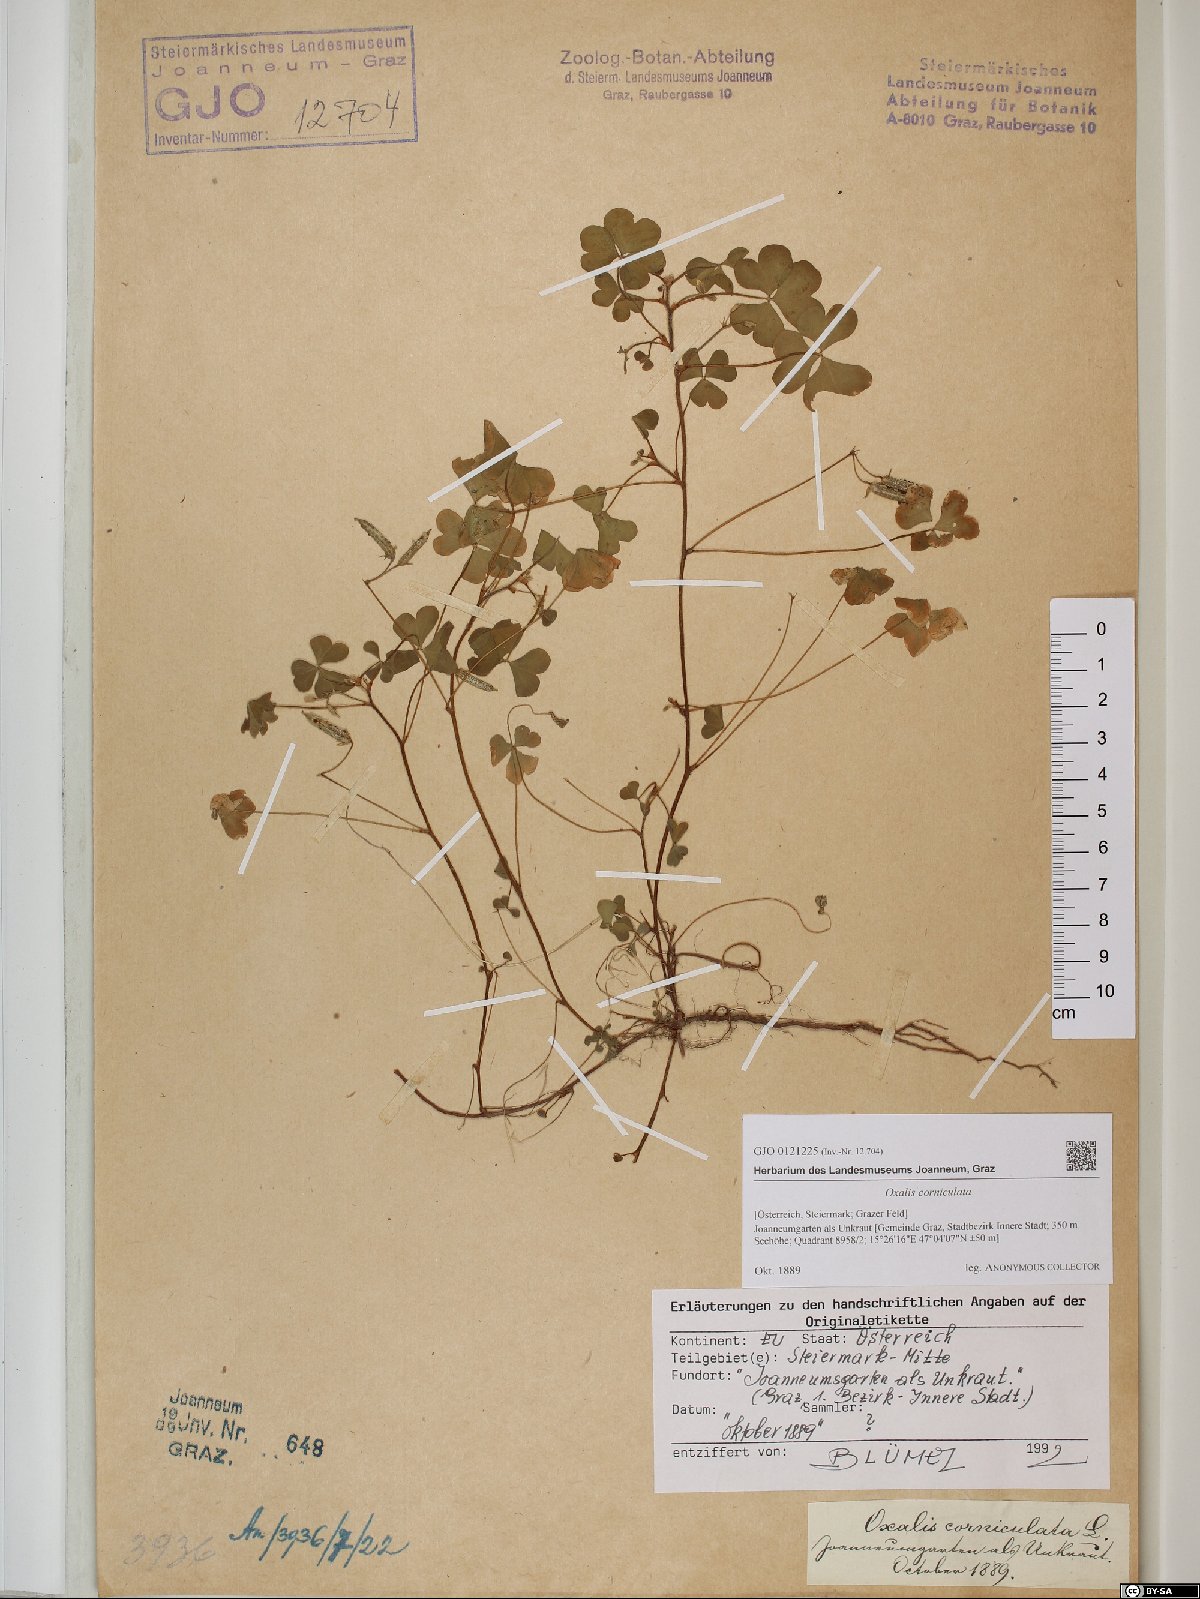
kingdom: Plantae
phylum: Tracheophyta
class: Magnoliopsida
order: Oxalidales
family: Oxalidaceae
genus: Oxalis
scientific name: Oxalis corniculata
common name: Procumbent yellow-sorrel
